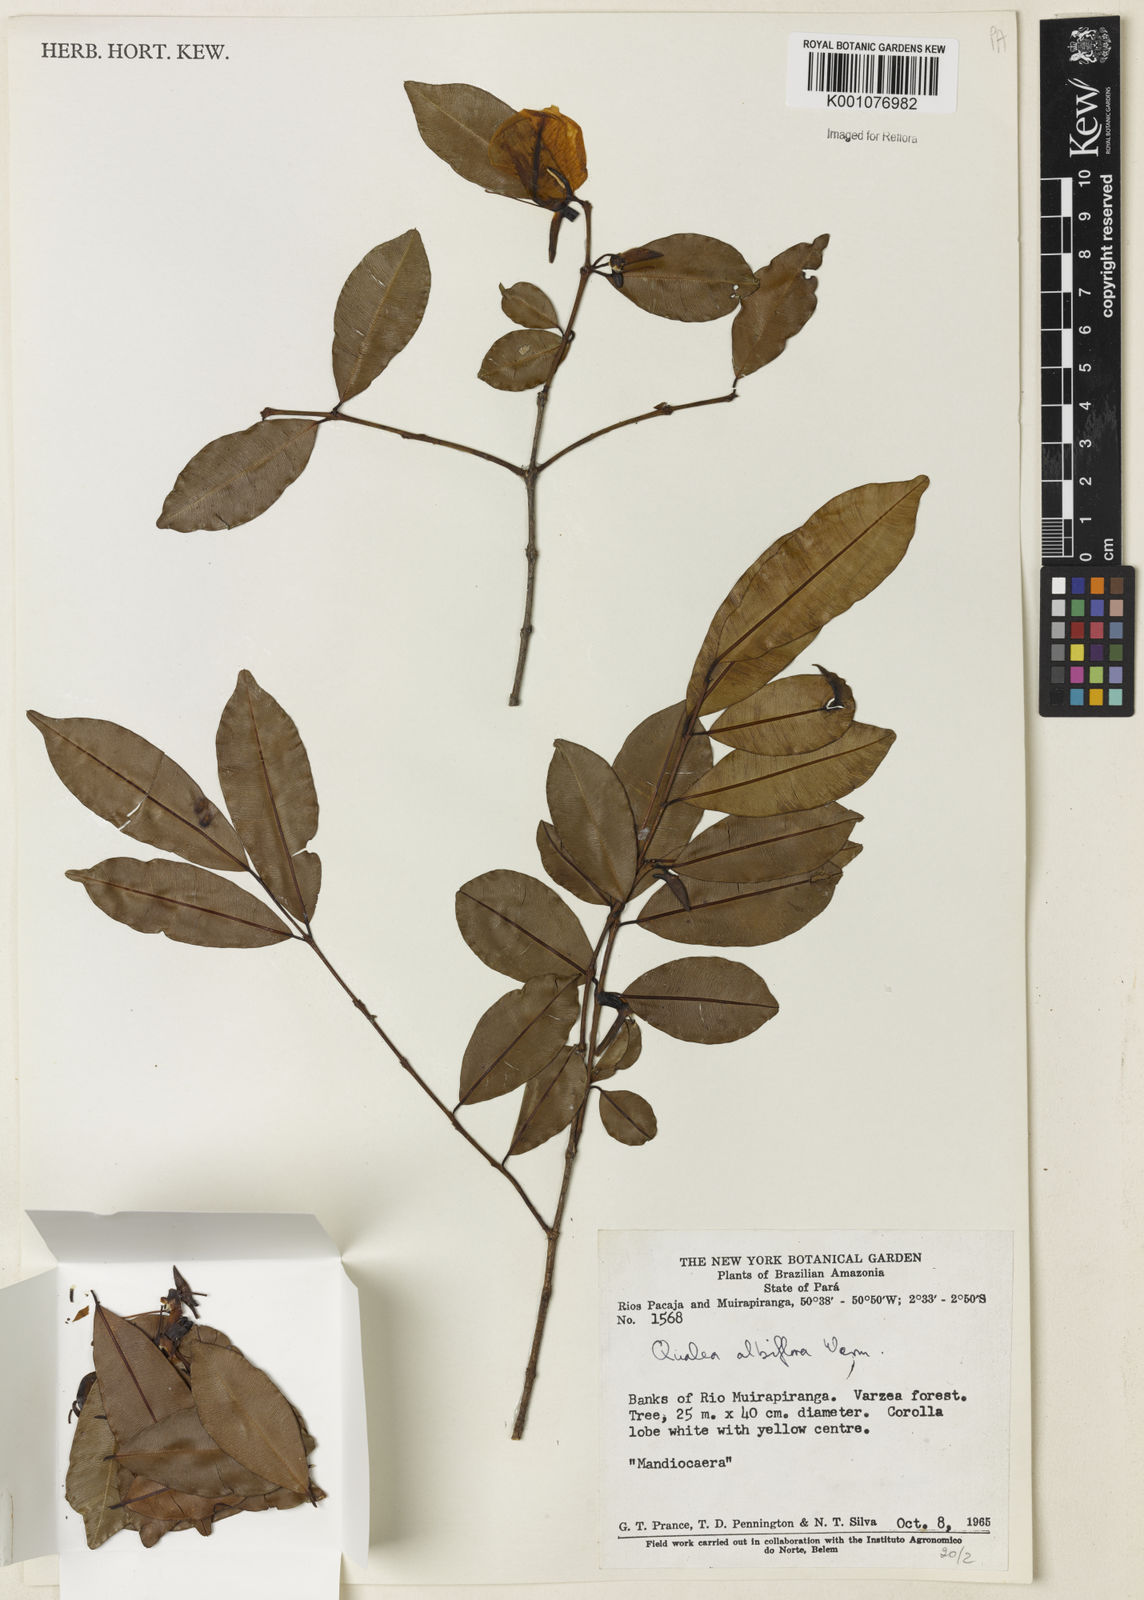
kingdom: Plantae
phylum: Tracheophyta
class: Magnoliopsida
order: Myrtales
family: Vochysiaceae
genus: Ruizterania
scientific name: Ruizterania albiflora
